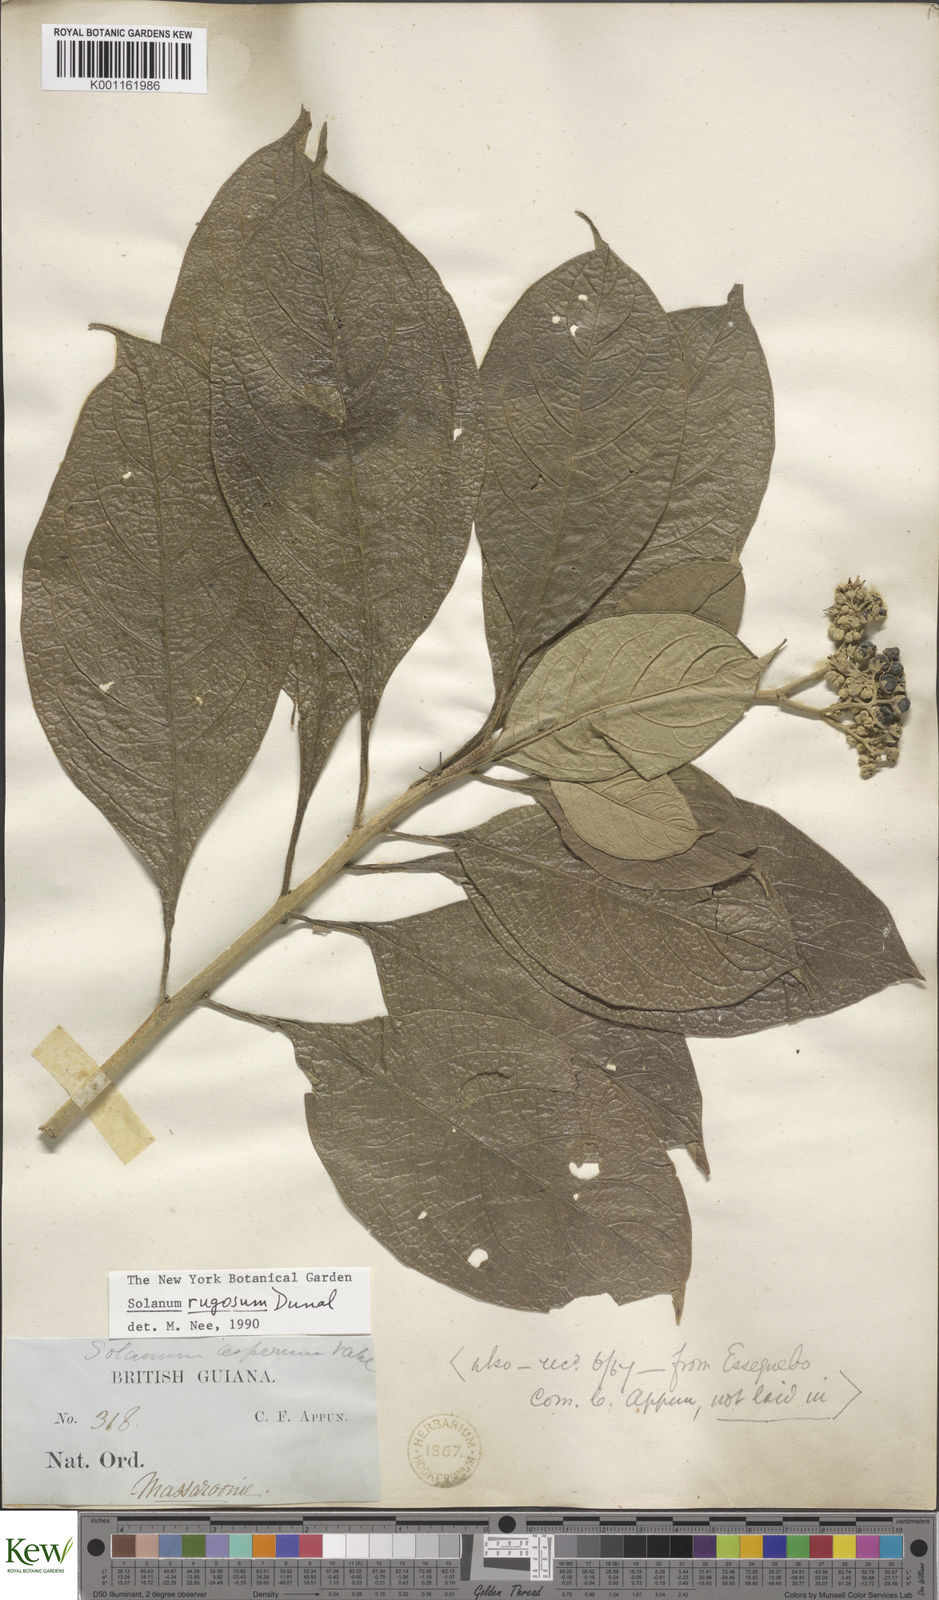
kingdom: Plantae
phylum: Tracheophyta
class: Magnoliopsida
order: Solanales
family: Solanaceae
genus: Solanum
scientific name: Solanum rugosum
